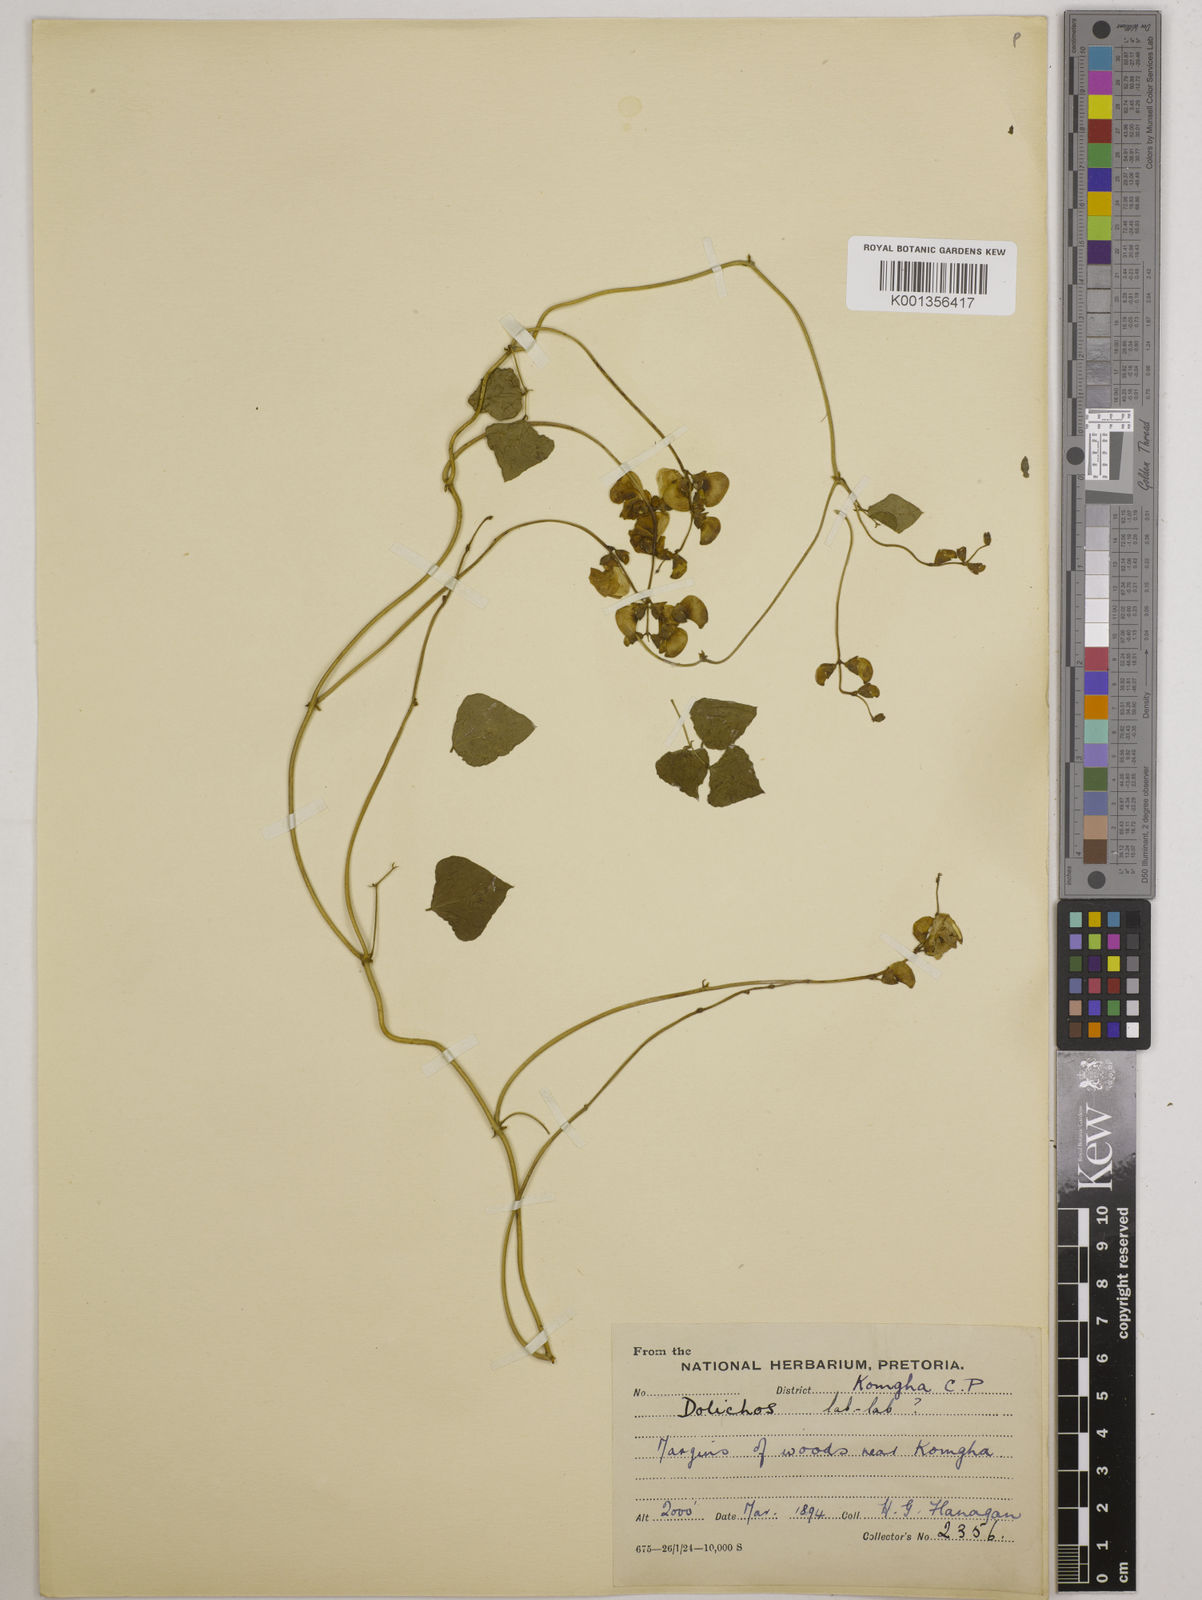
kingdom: Plantae
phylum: Tracheophyta
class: Magnoliopsida
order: Fabales
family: Fabaceae
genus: Lablab
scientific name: Lablab purpureus
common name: Lablab-bean
